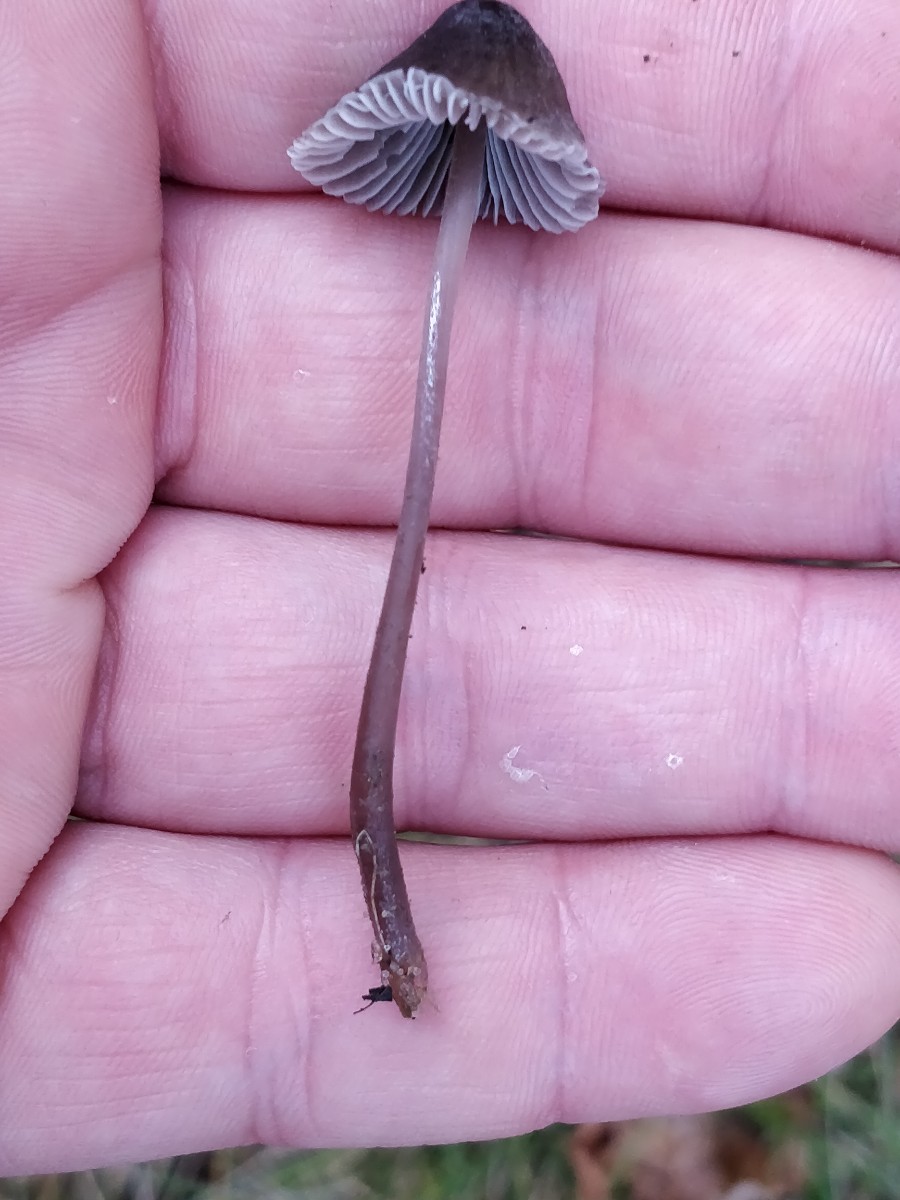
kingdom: Fungi
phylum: Basidiomycota
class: Agaricomycetes
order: Agaricales
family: Mycenaceae
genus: Mycena
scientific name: Mycena
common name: huesvamp
